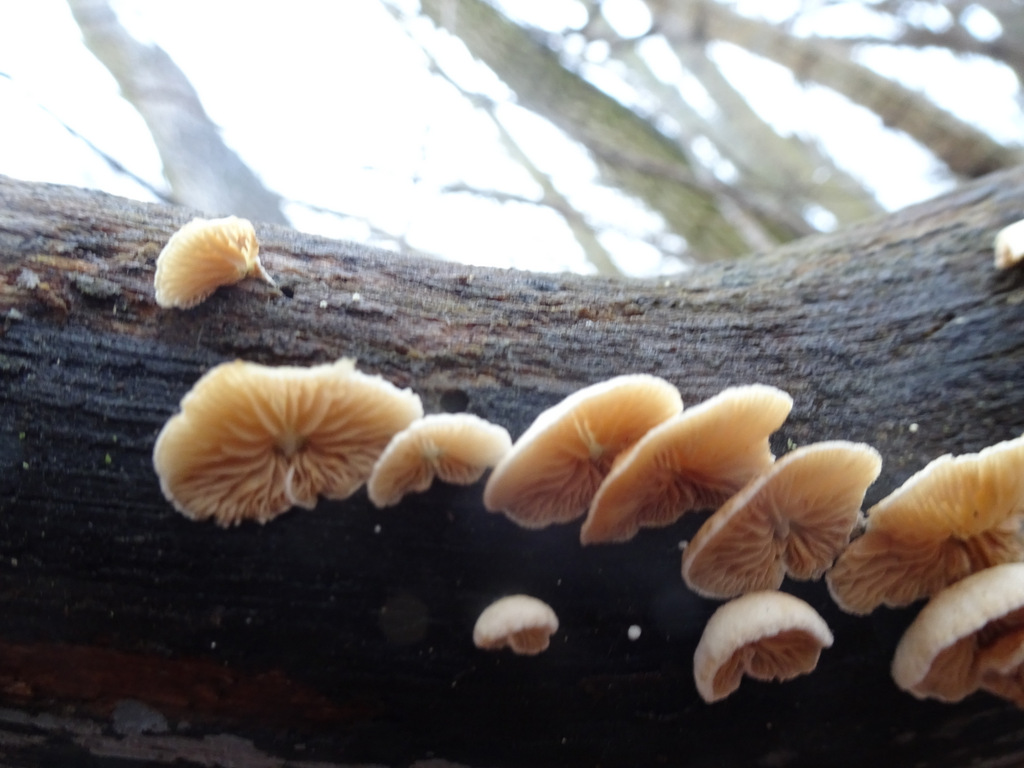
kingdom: Fungi
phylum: Basidiomycota
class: Agaricomycetes
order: Agaricales
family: Crepidotaceae
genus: Crepidotus
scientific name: Crepidotus
